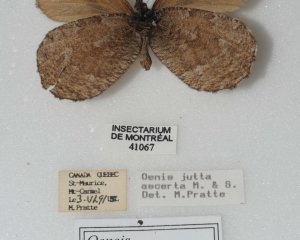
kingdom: Animalia
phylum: Arthropoda
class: Insecta
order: Lepidoptera
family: Nymphalidae
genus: Oeneis
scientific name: Oeneis jutta
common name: Jutta Arctic
